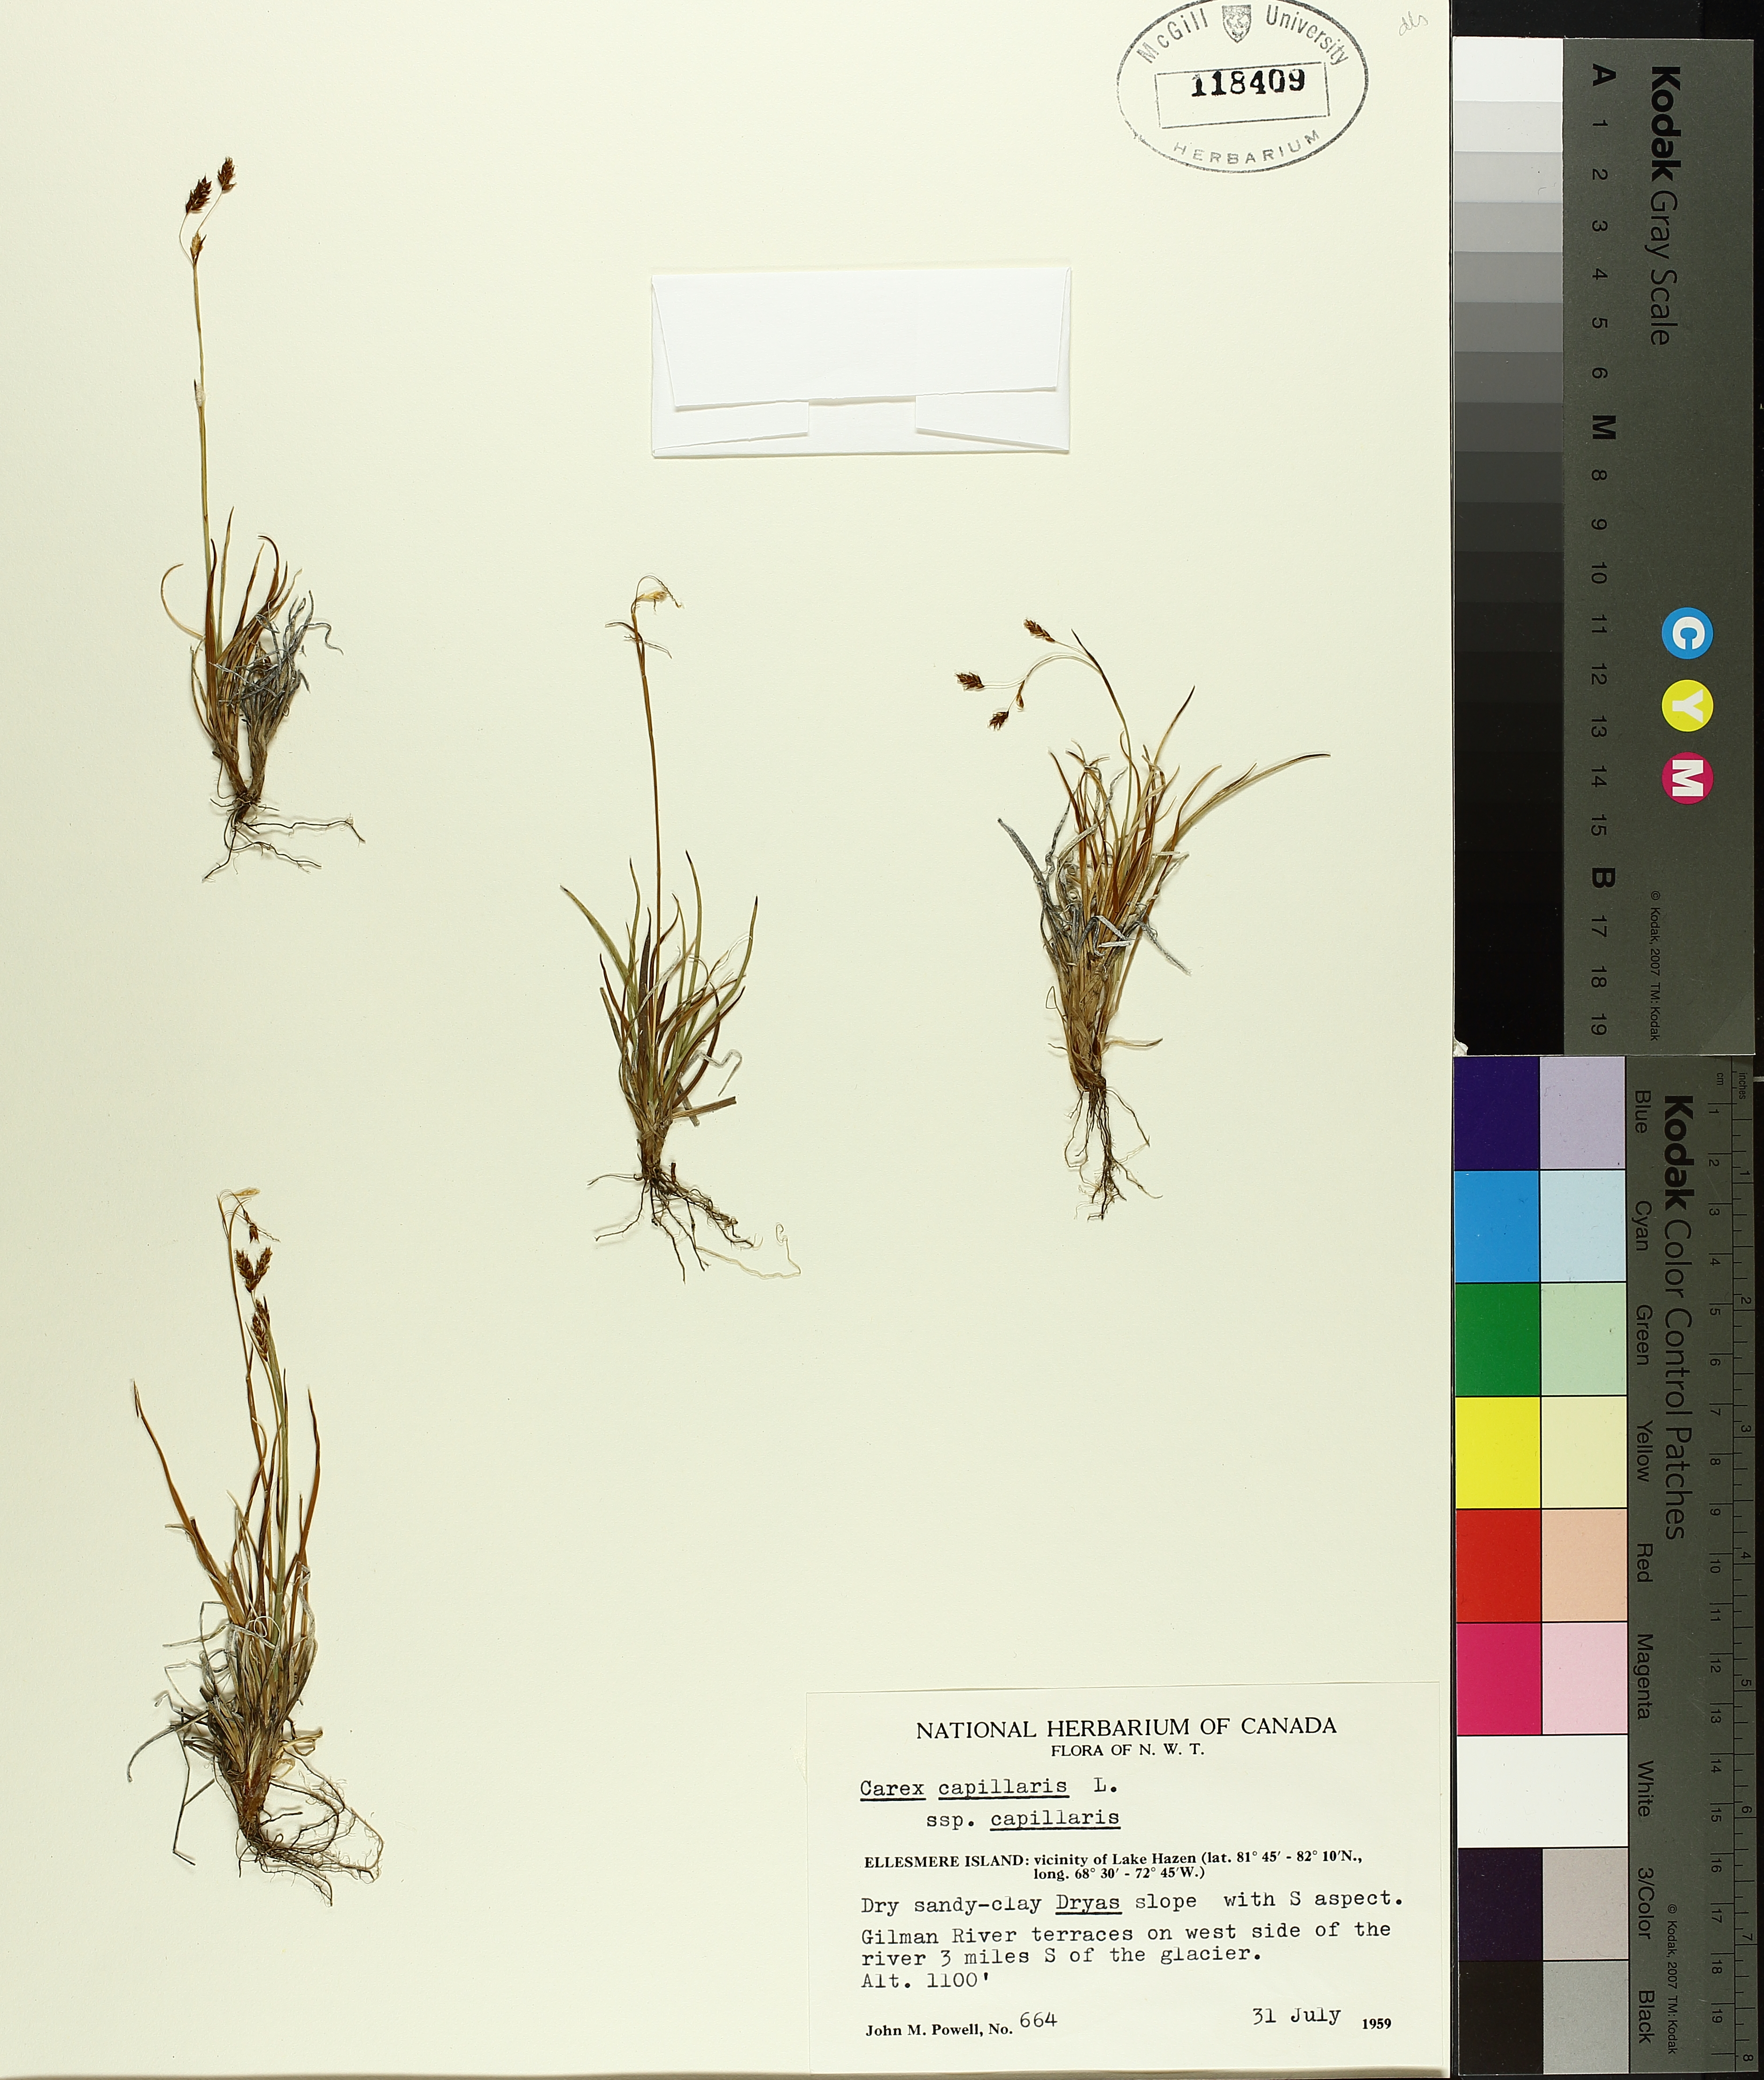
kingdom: Plantae
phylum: Tracheophyta
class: Liliopsida
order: Poales
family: Cyperaceae
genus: Carex
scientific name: Carex capillaris
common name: Hair sedge
